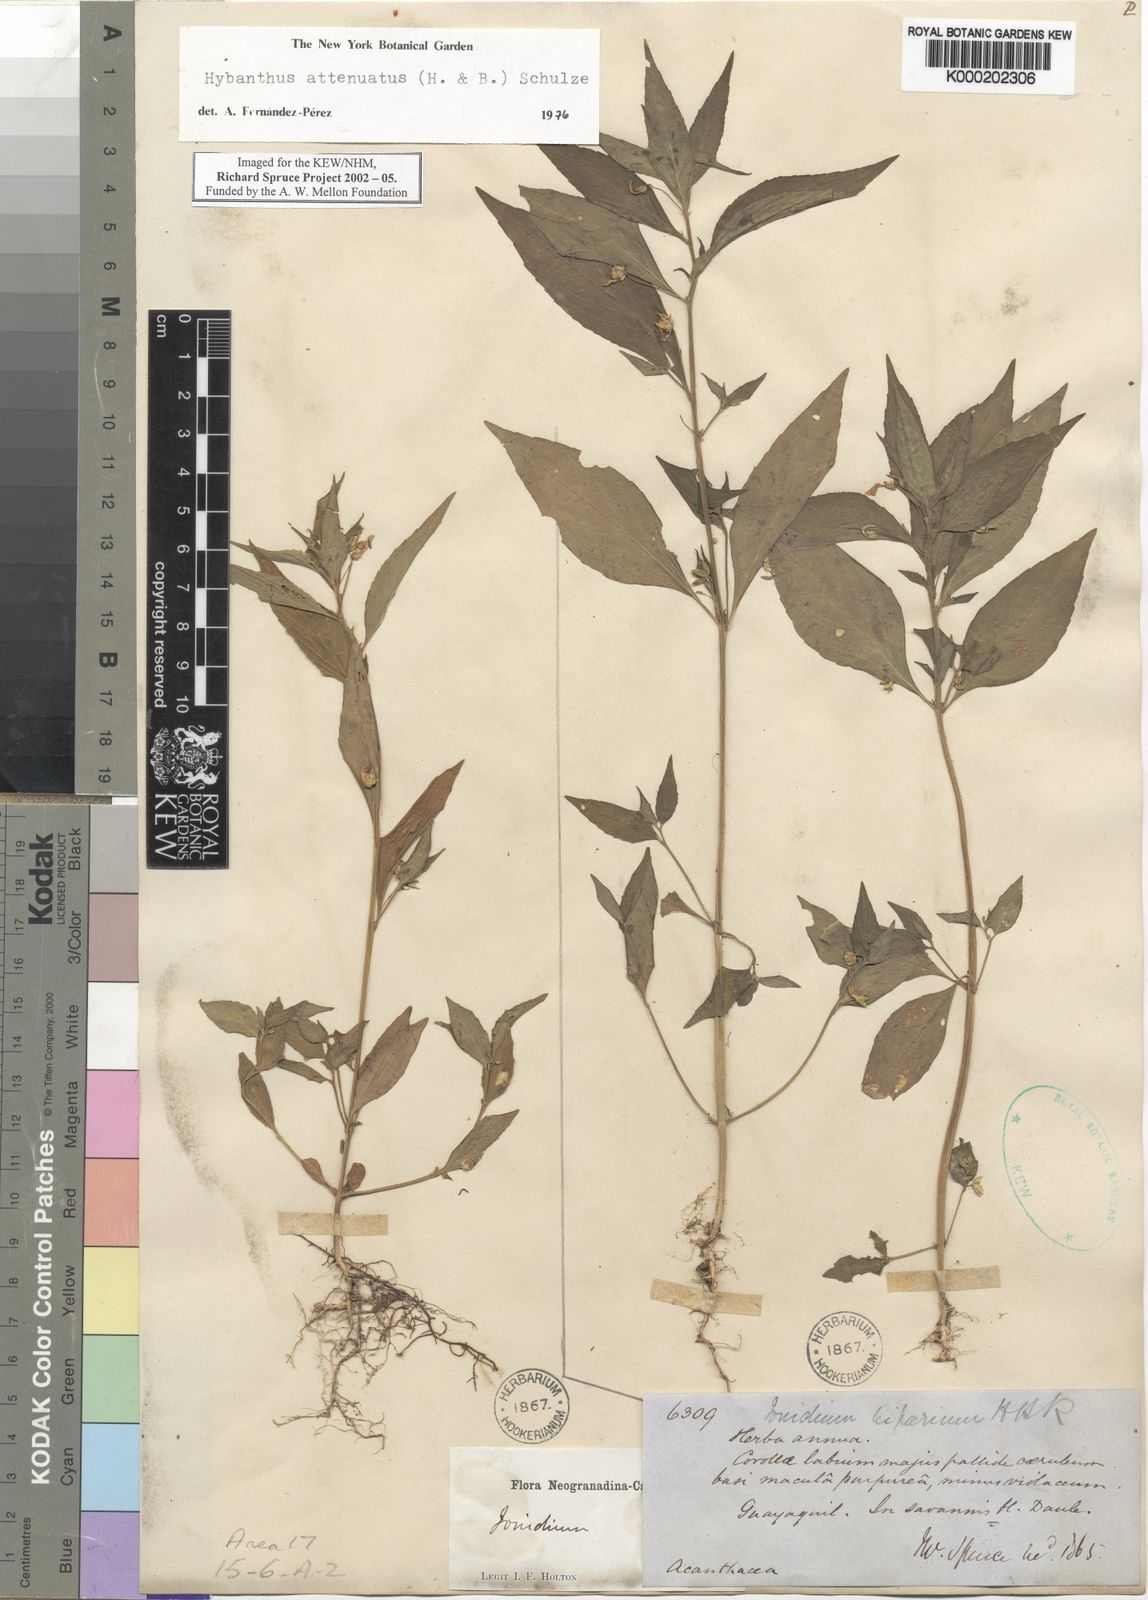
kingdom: Plantae
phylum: Tracheophyta
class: Magnoliopsida
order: Malpighiales
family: Violaceae
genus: Hybanthus
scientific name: Hybanthus
